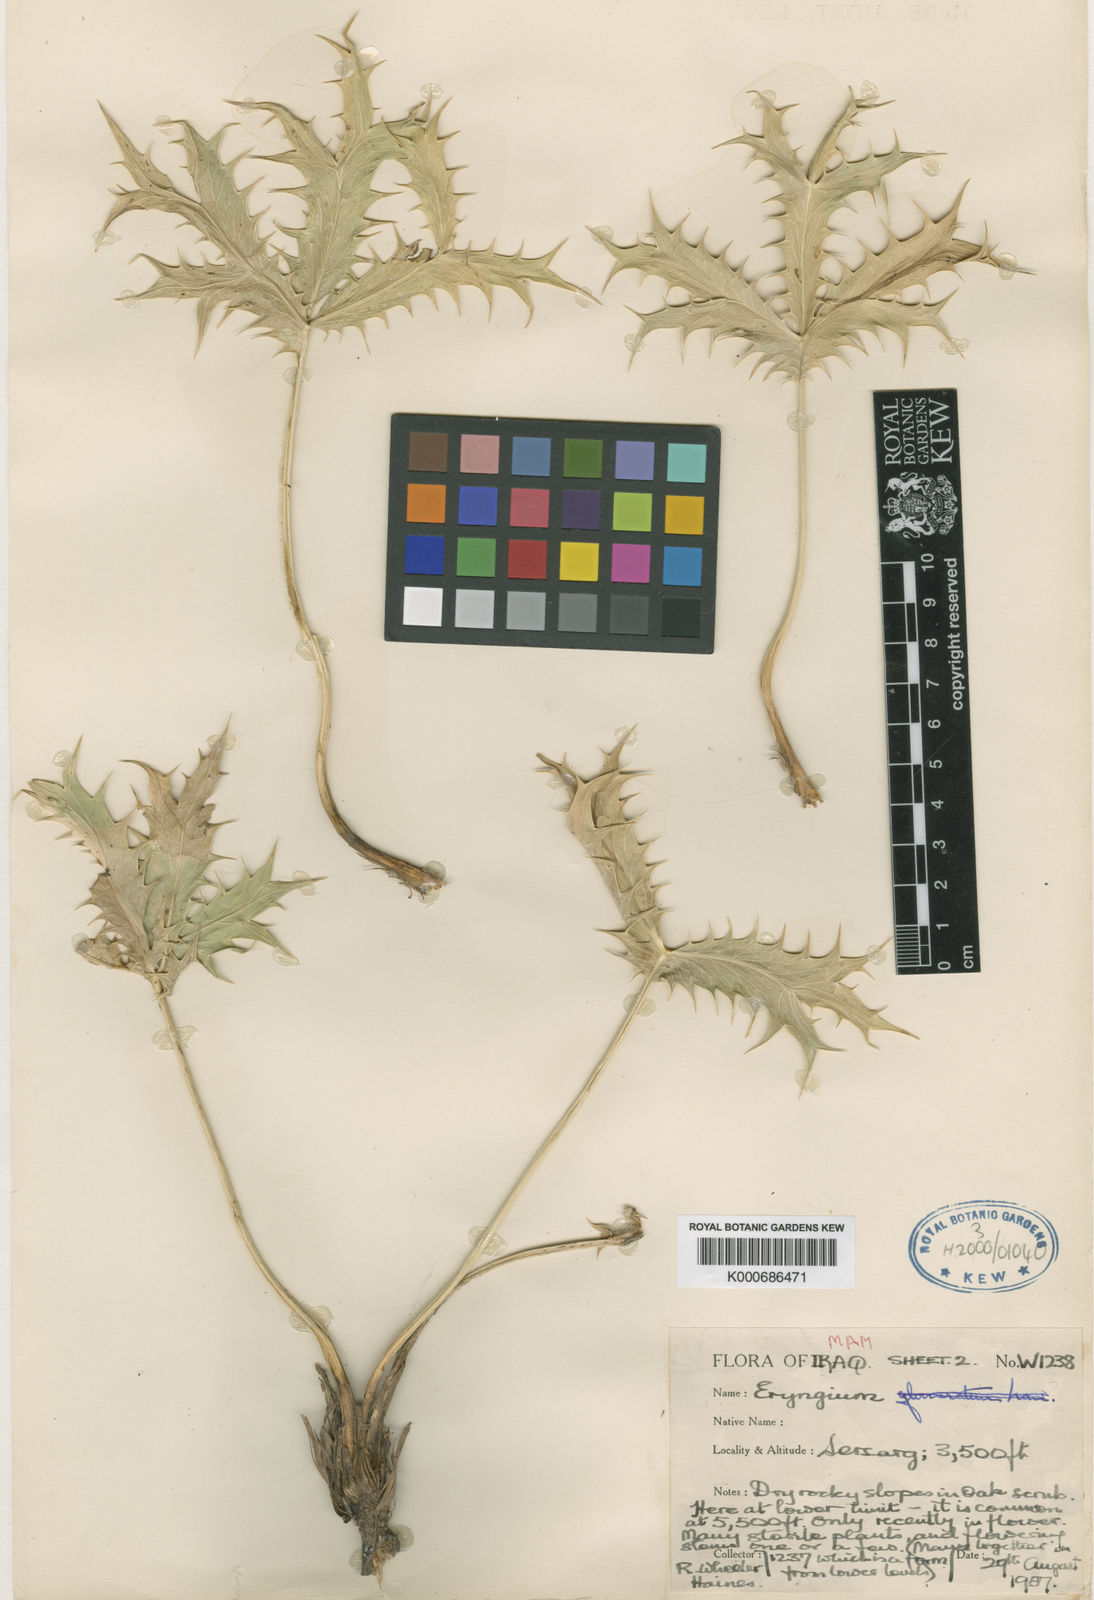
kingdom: Plantae
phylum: Tracheophyta
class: Magnoliopsida
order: Apiales
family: Apiaceae
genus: Eryngium
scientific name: Eryngium hainesii
